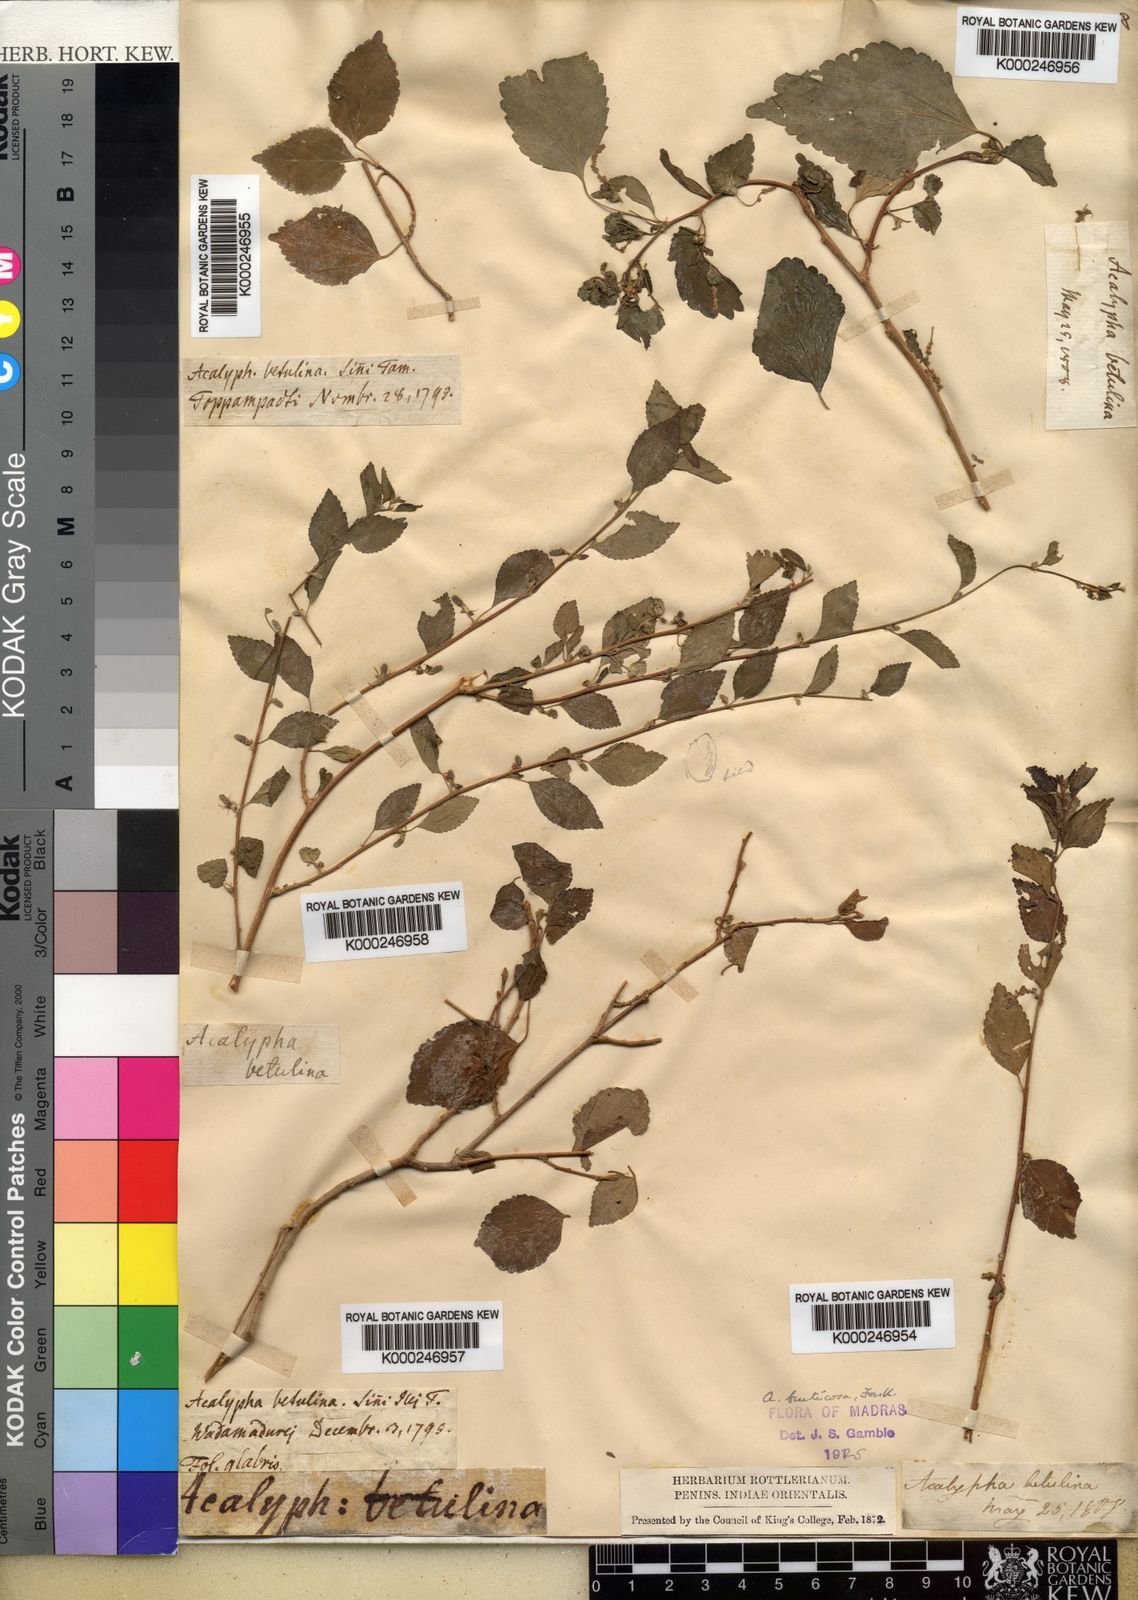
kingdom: Plantae
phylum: Tracheophyta
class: Magnoliopsida
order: Malpighiales
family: Euphorbiaceae
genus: Acalypha
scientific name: Acalypha fruticosa
